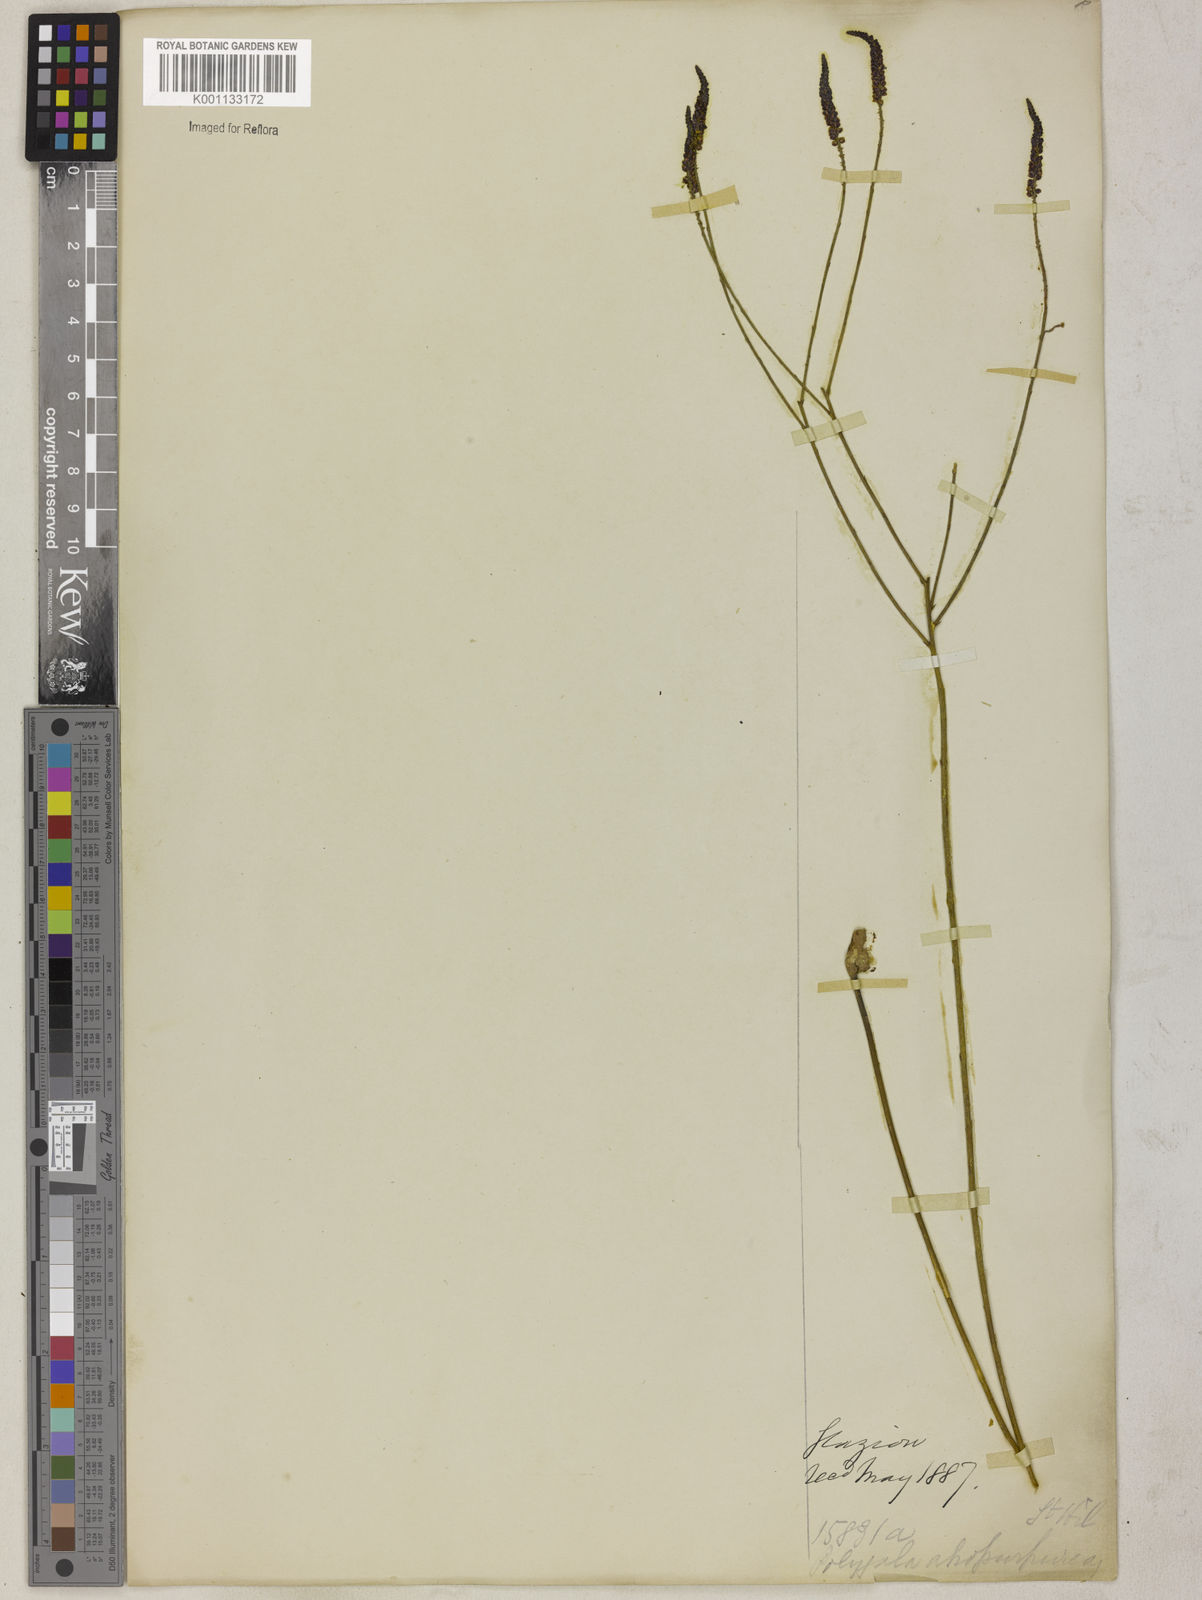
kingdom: Plantae
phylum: Tracheophyta
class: Magnoliopsida
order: Fabales
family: Polygalaceae
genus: Polygala
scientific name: Polygala atropurpurea
